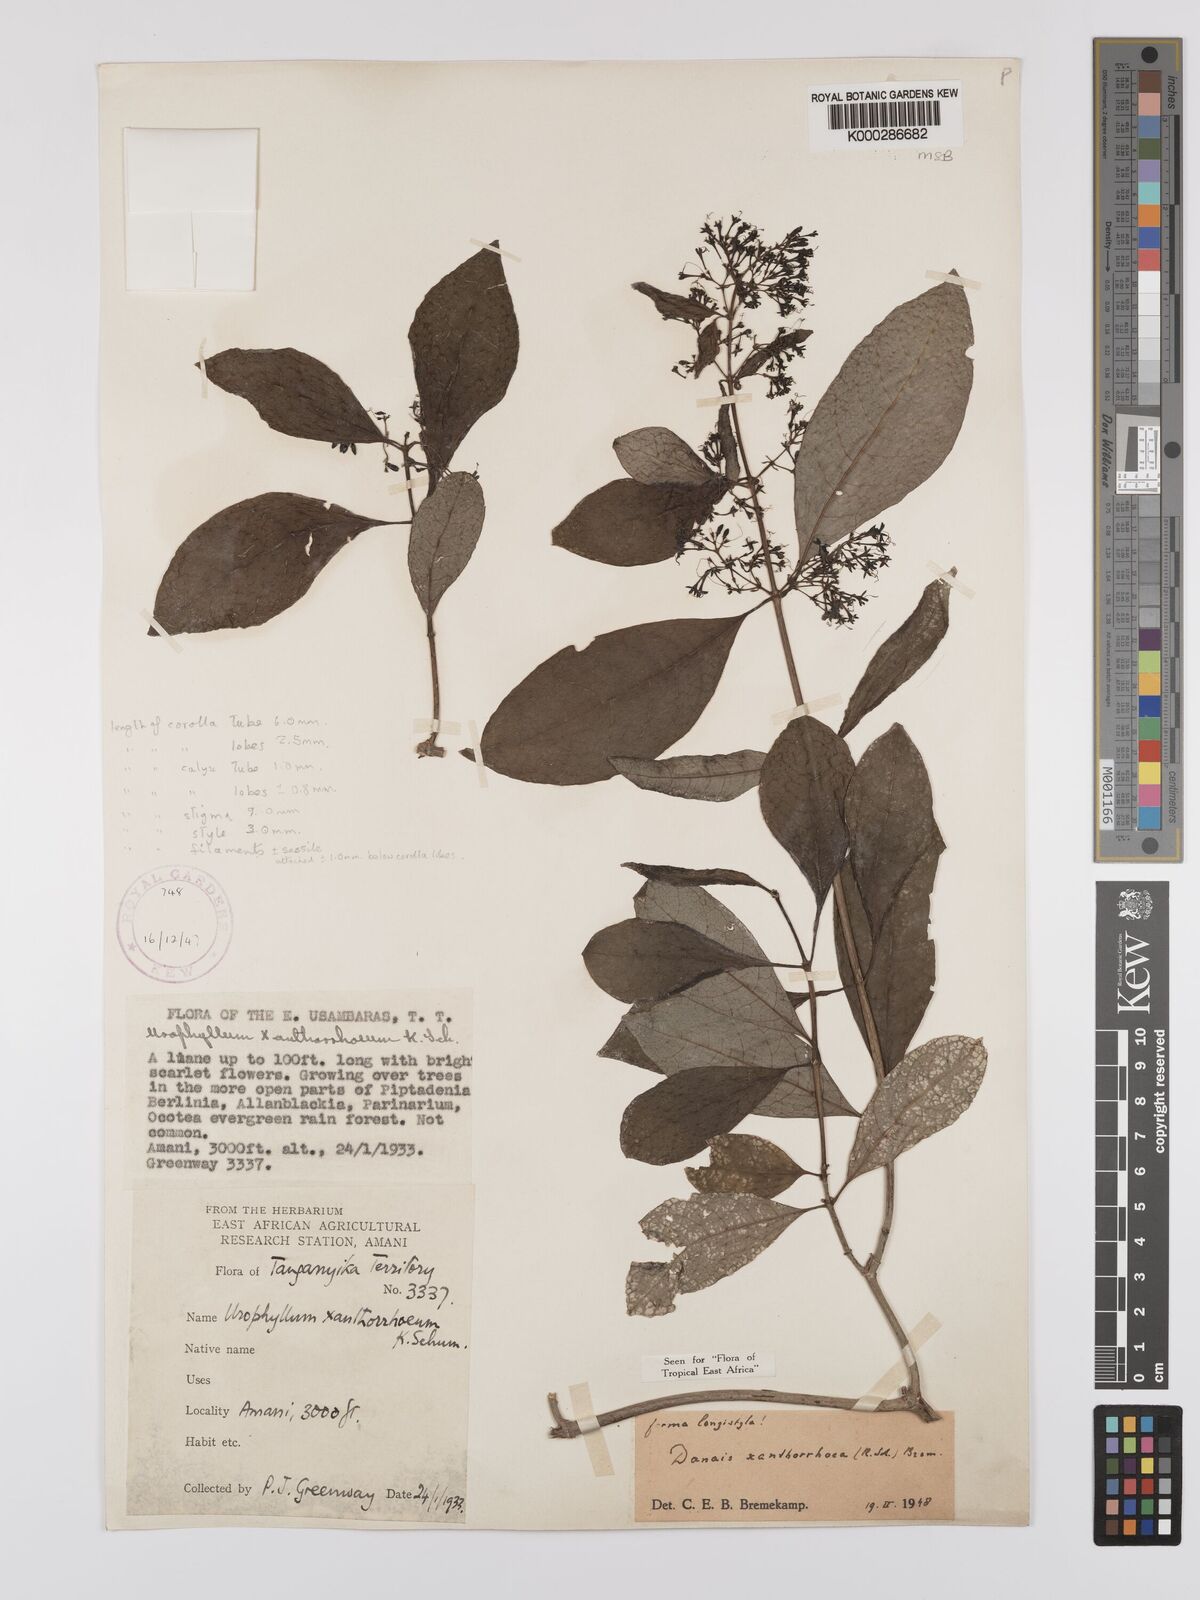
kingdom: Plantae
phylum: Tracheophyta
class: Magnoliopsida
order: Gentianales
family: Rubiaceae
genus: Danais
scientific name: Danais xanthorrhoea
